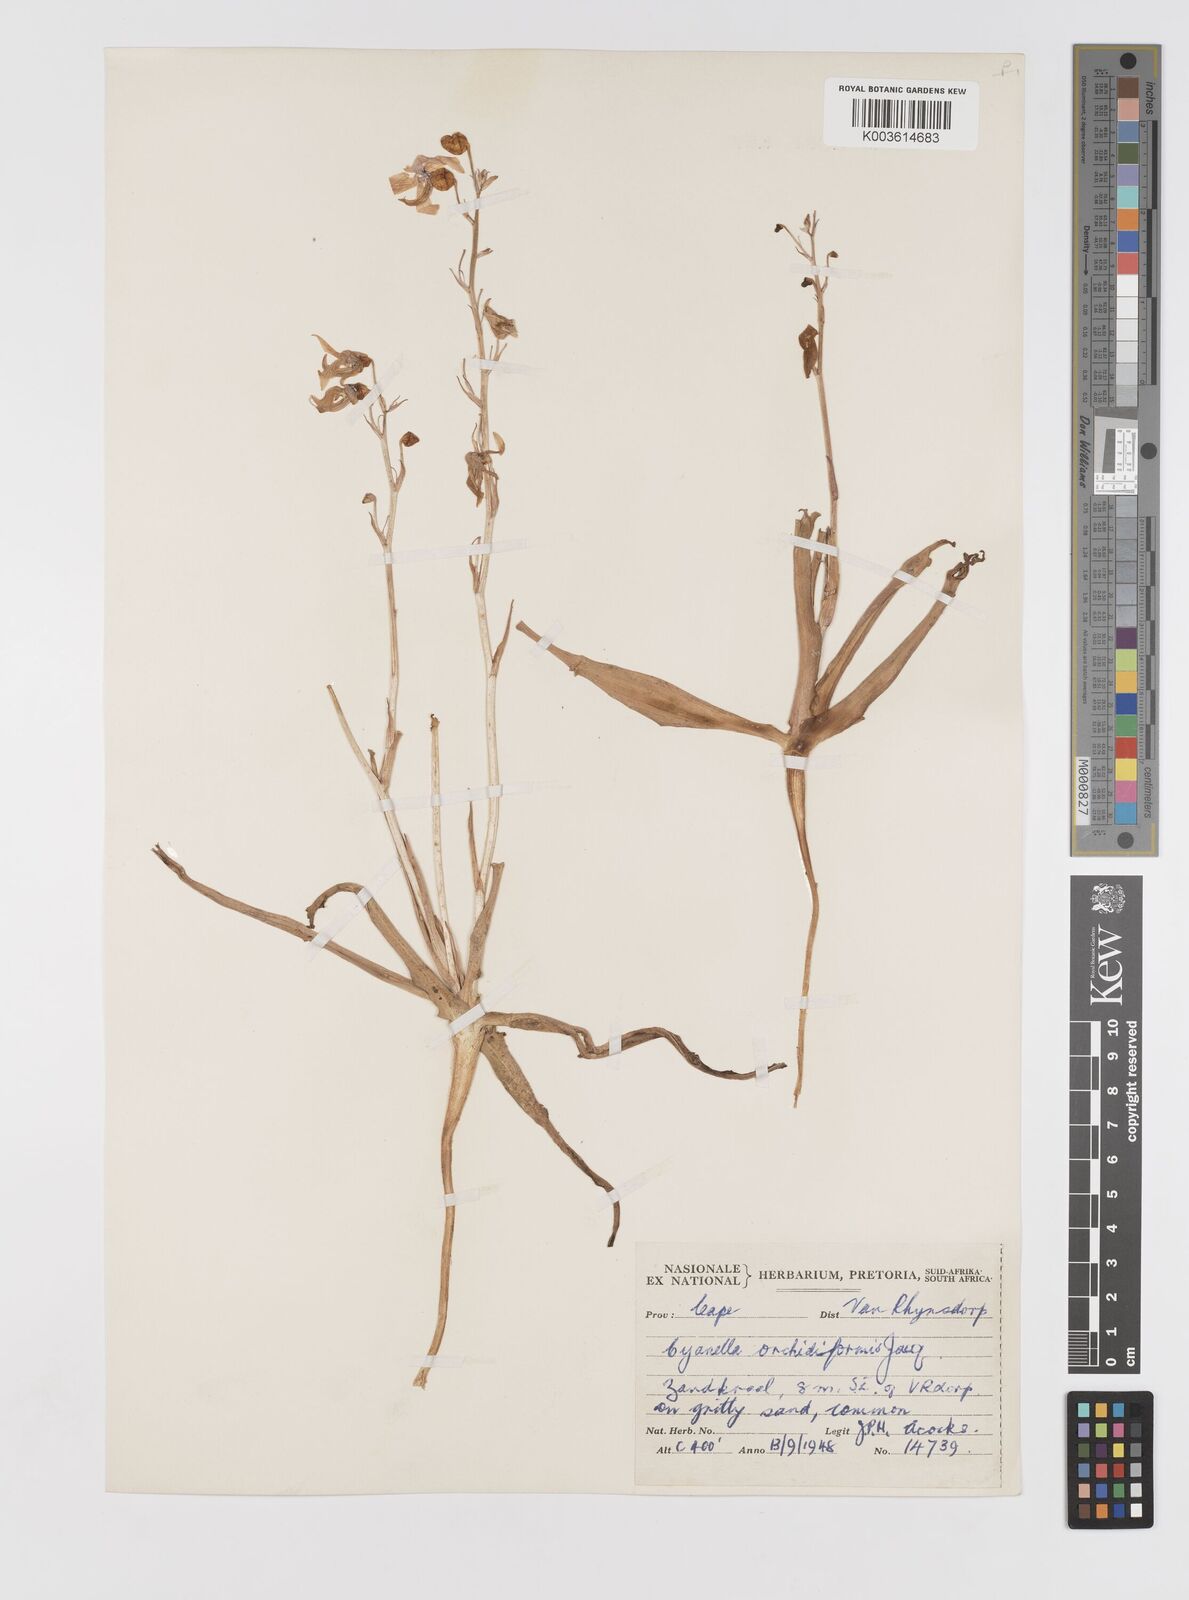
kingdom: Plantae
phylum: Tracheophyta
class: Liliopsida
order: Asparagales
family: Tecophilaeaceae
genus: Cyanella
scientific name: Cyanella orchidiformis
